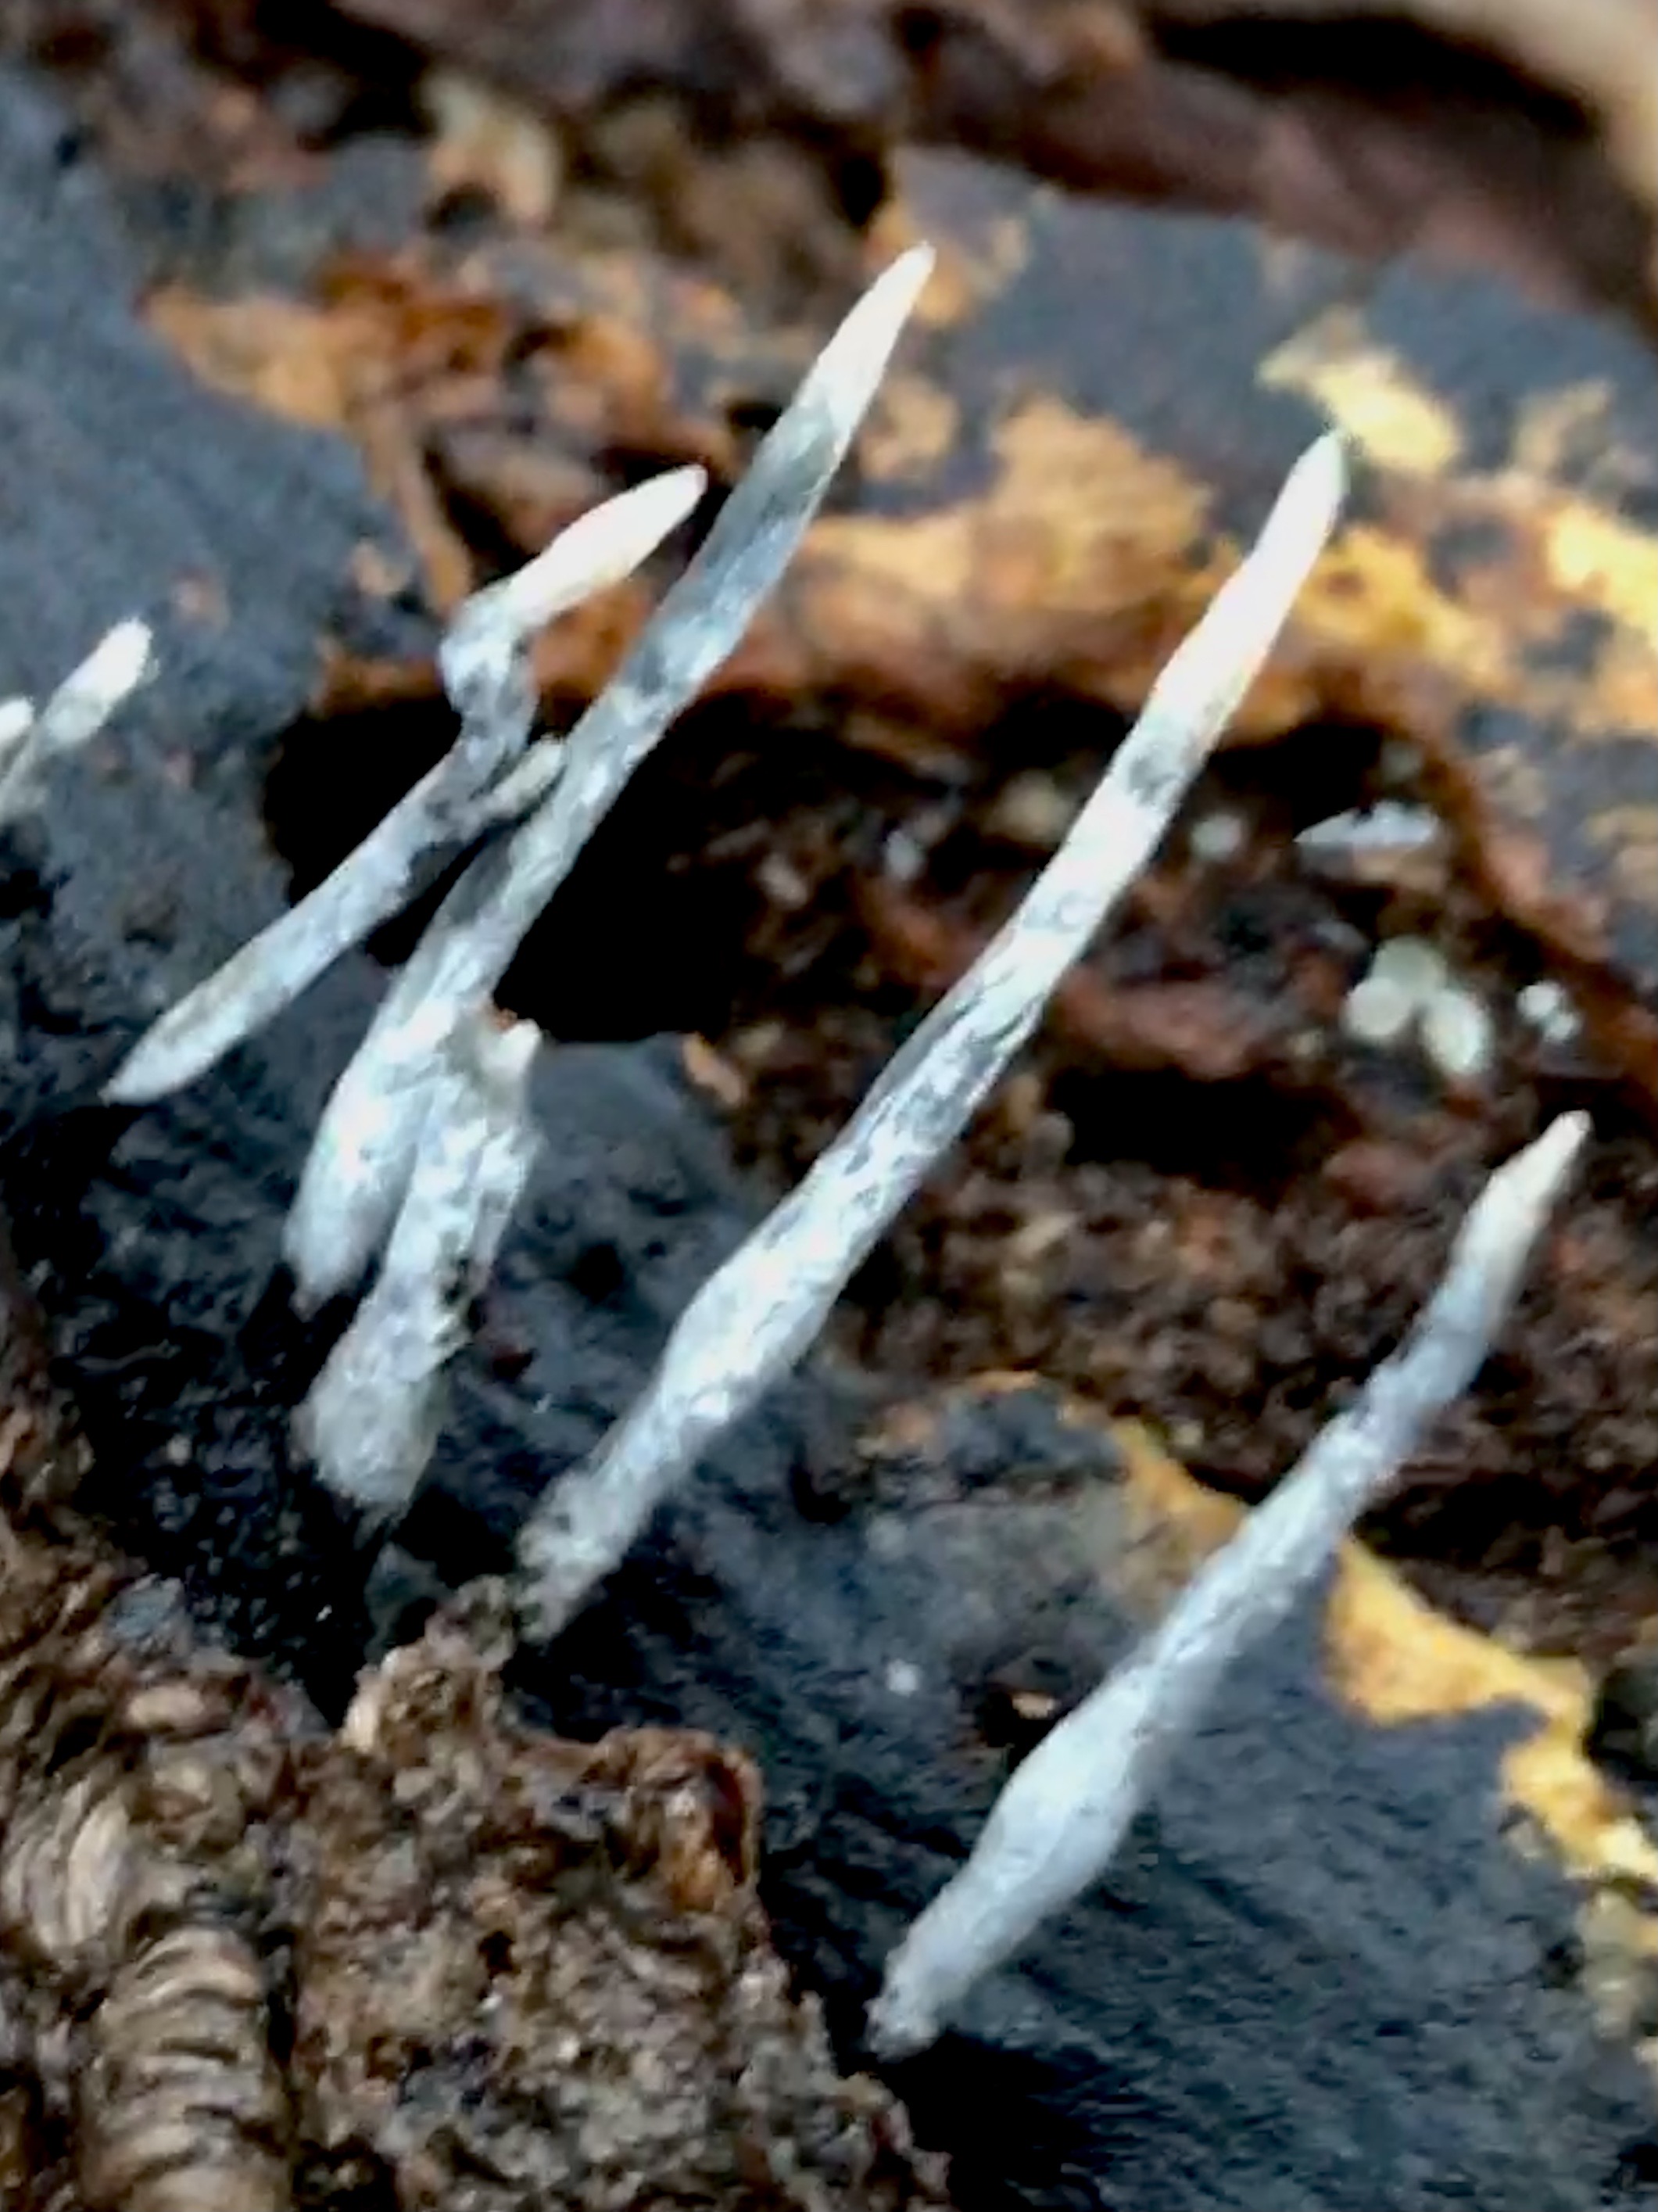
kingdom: Fungi
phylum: Ascomycota
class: Sordariomycetes
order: Xylariales
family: Xylariaceae
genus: Xylaria
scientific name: Xylaria hypoxylon
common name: grenet stødsvamp
